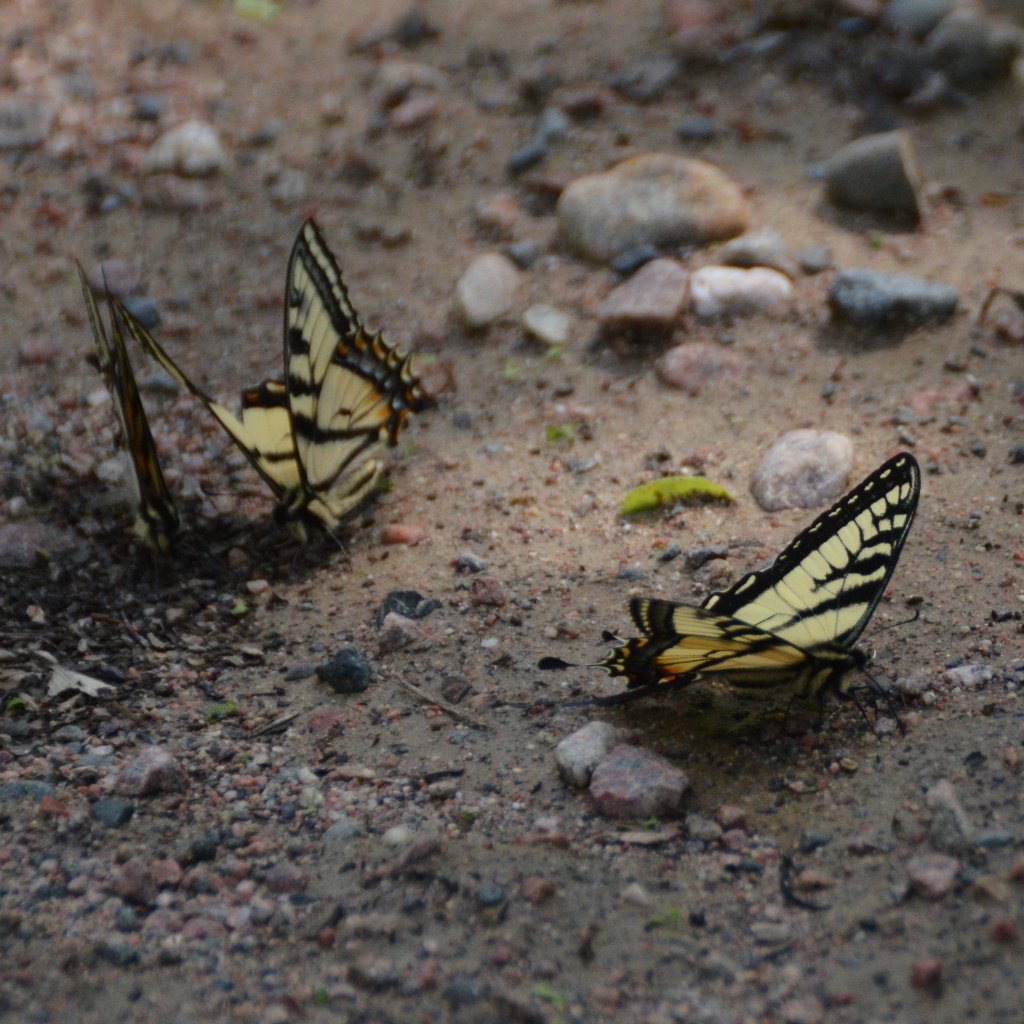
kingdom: Animalia
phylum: Arthropoda
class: Insecta
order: Lepidoptera
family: Papilionidae
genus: Pterourus
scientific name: Pterourus canadensis
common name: Canadian Tiger Swallowtail
